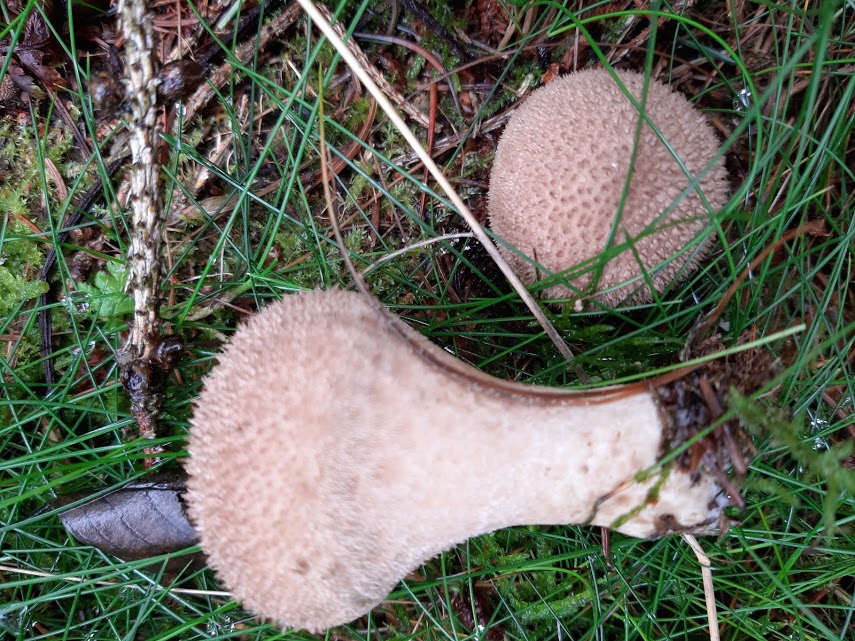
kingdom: Fungi
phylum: Basidiomycota
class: Agaricomycetes
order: Agaricales
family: Lycoperdaceae
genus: Lycoperdon
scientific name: Lycoperdon nigrescens
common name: sortagtig støvbold
